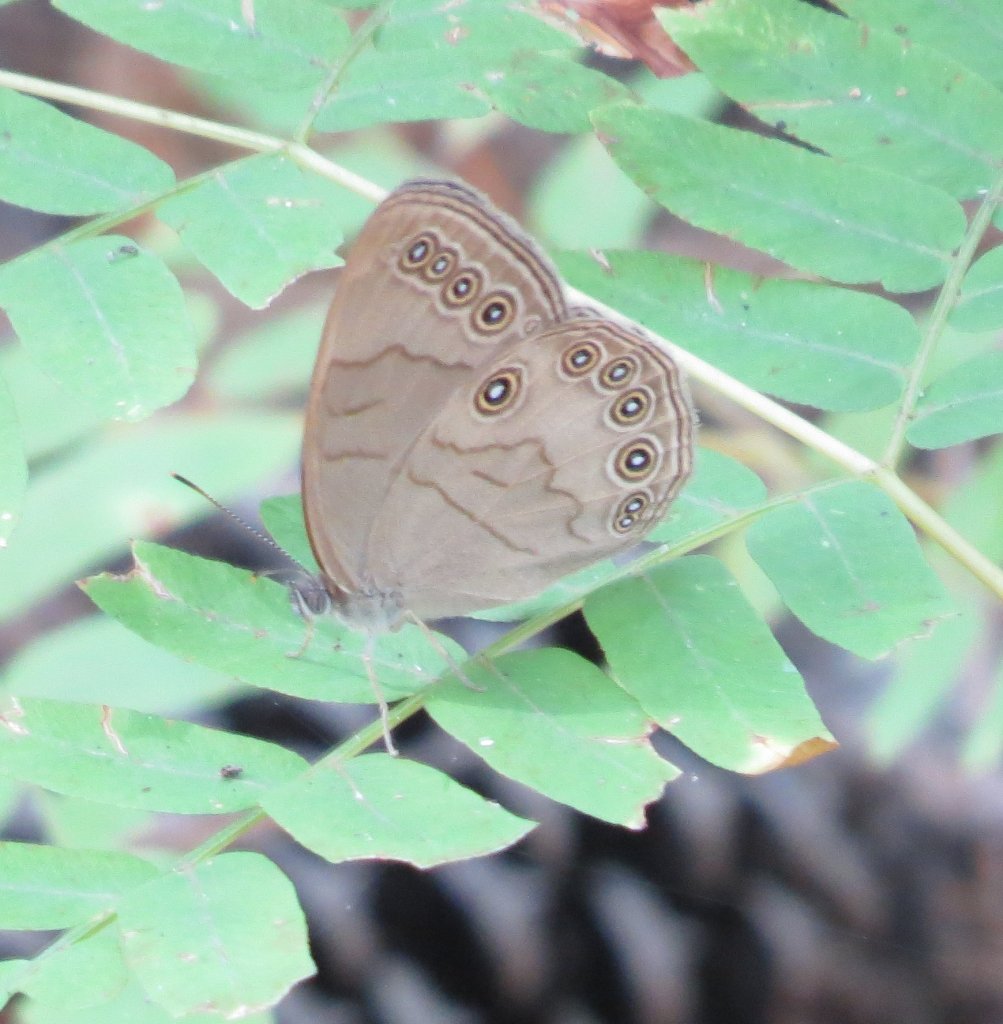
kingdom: Animalia
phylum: Arthropoda
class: Insecta
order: Lepidoptera
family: Nymphalidae
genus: Lethe
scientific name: Lethe eurydice
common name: Appalachian Eyed Brown
